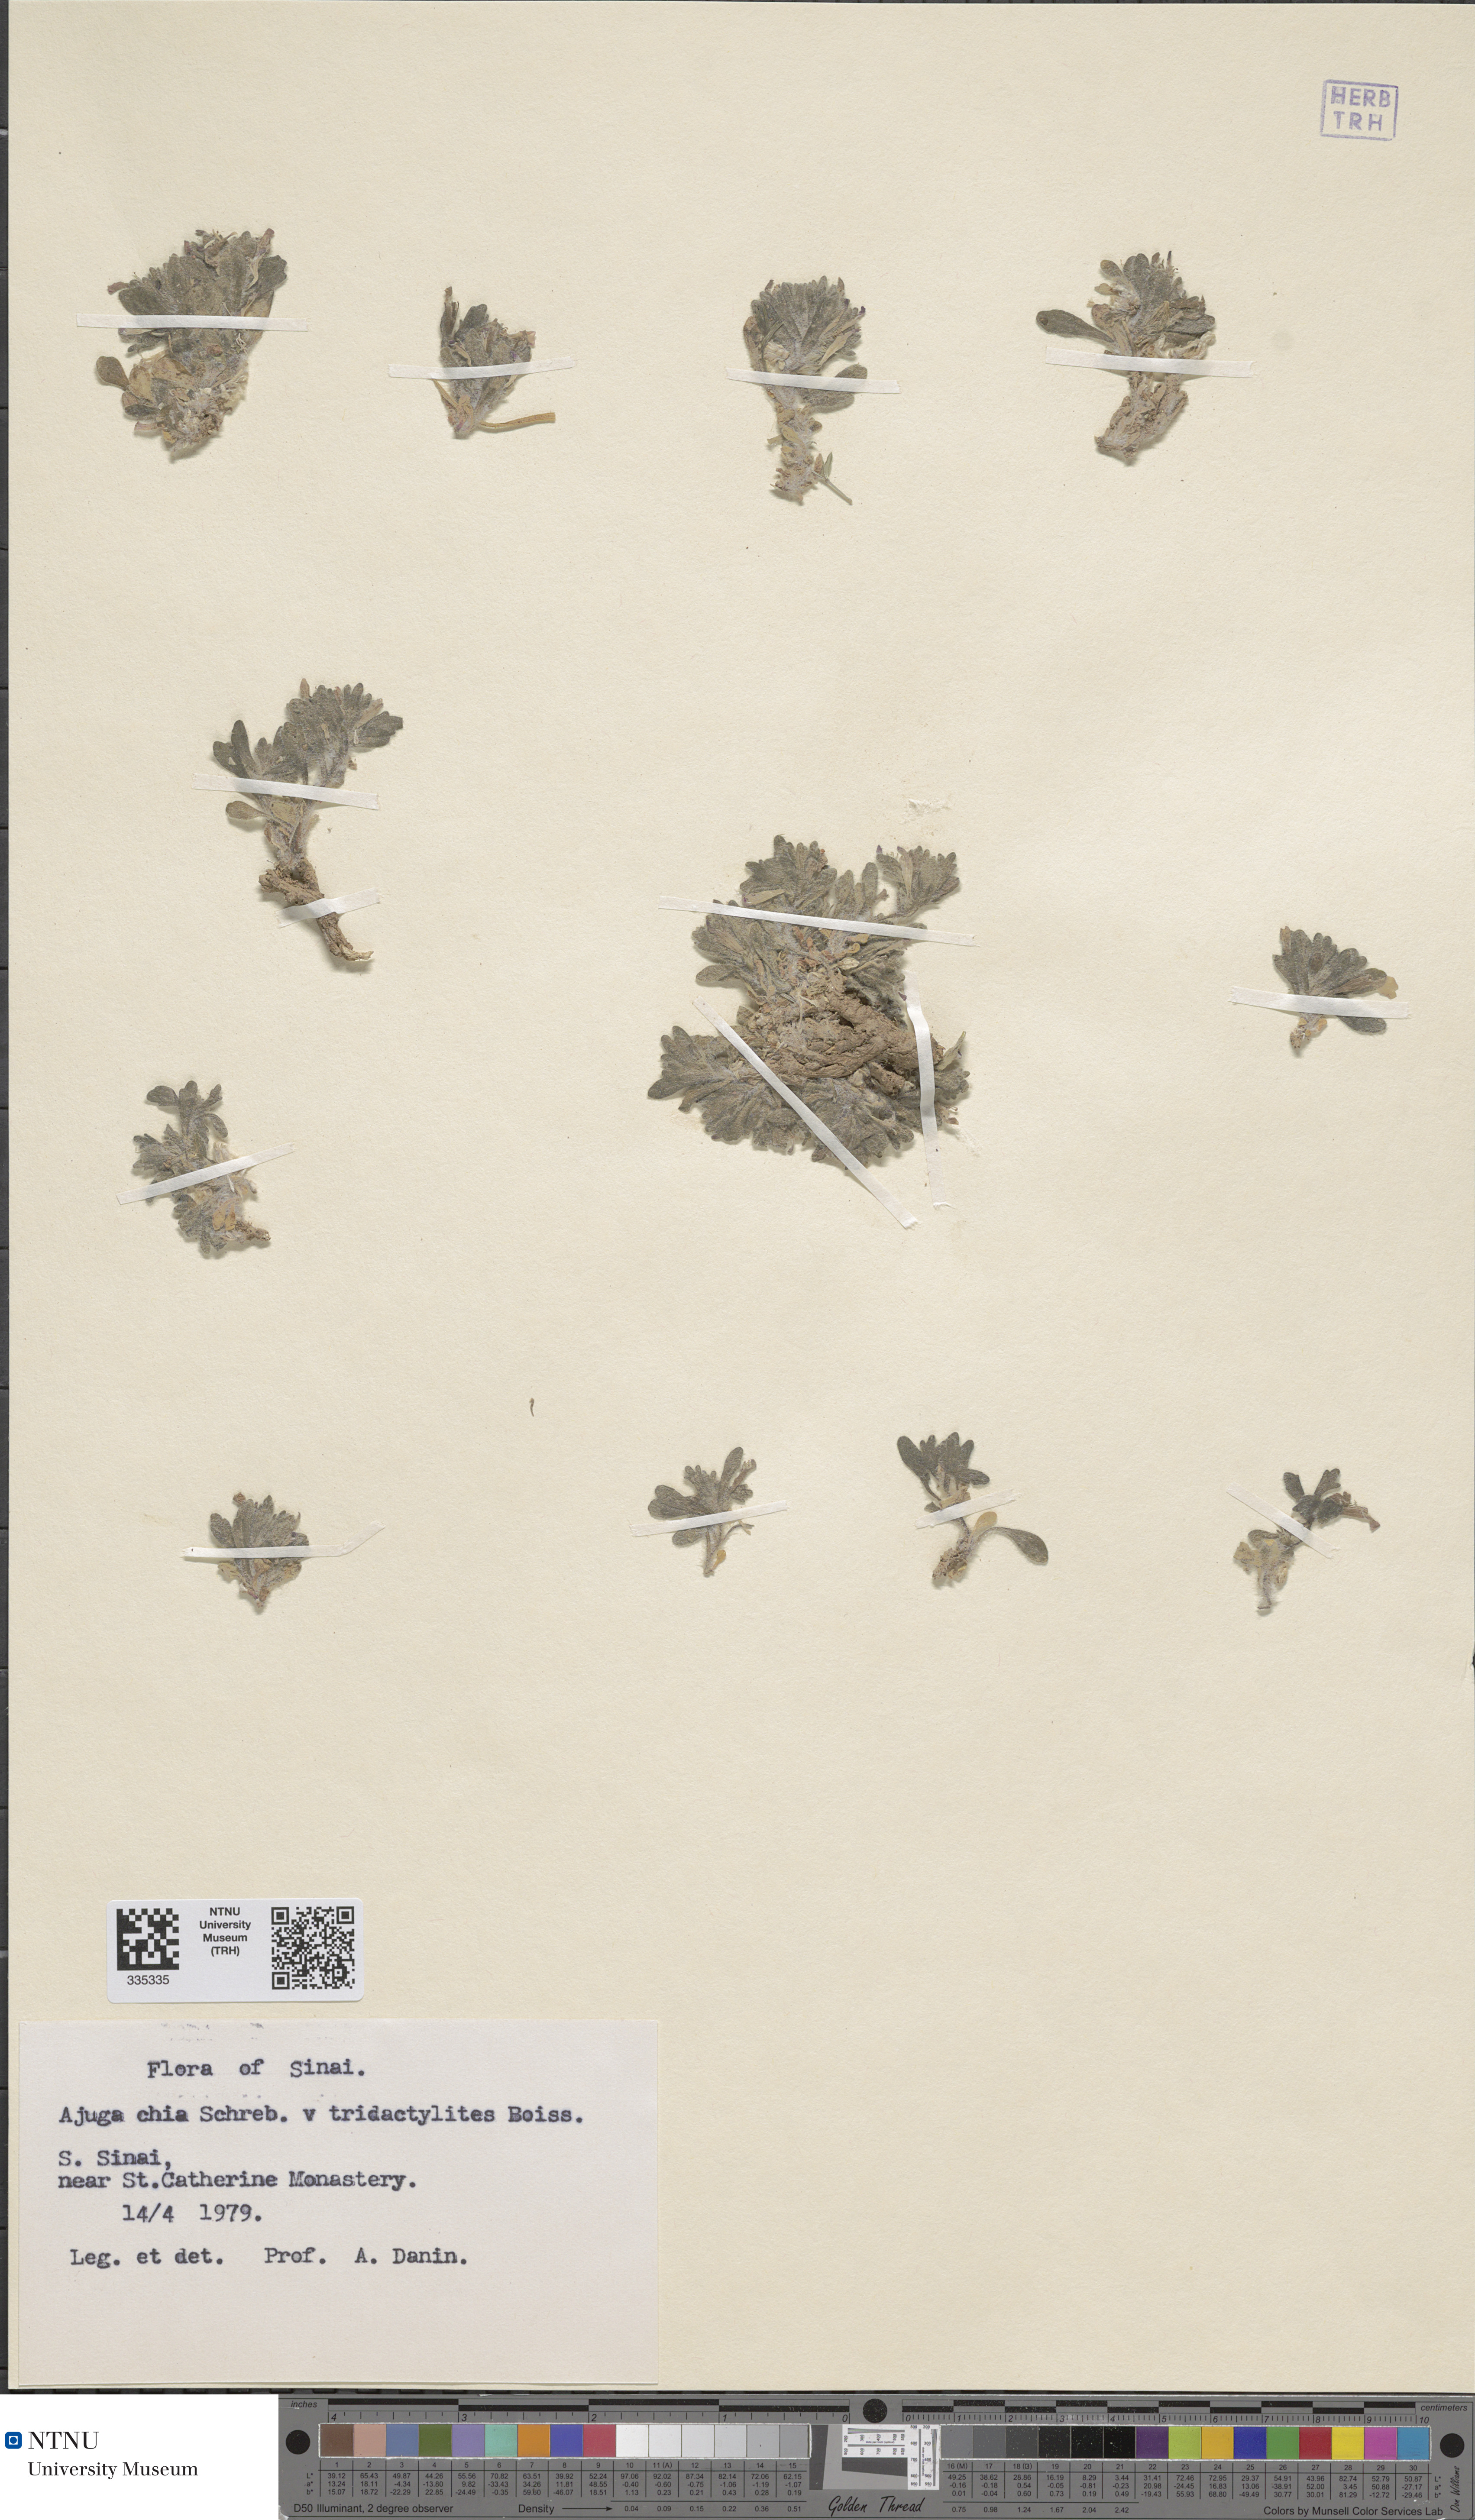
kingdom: Plantae
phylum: Tracheophyta
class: Magnoliopsida
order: Lamiales
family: Lamiaceae
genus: Ajuga
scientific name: Ajuga chamaepitys
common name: Ground-pine
